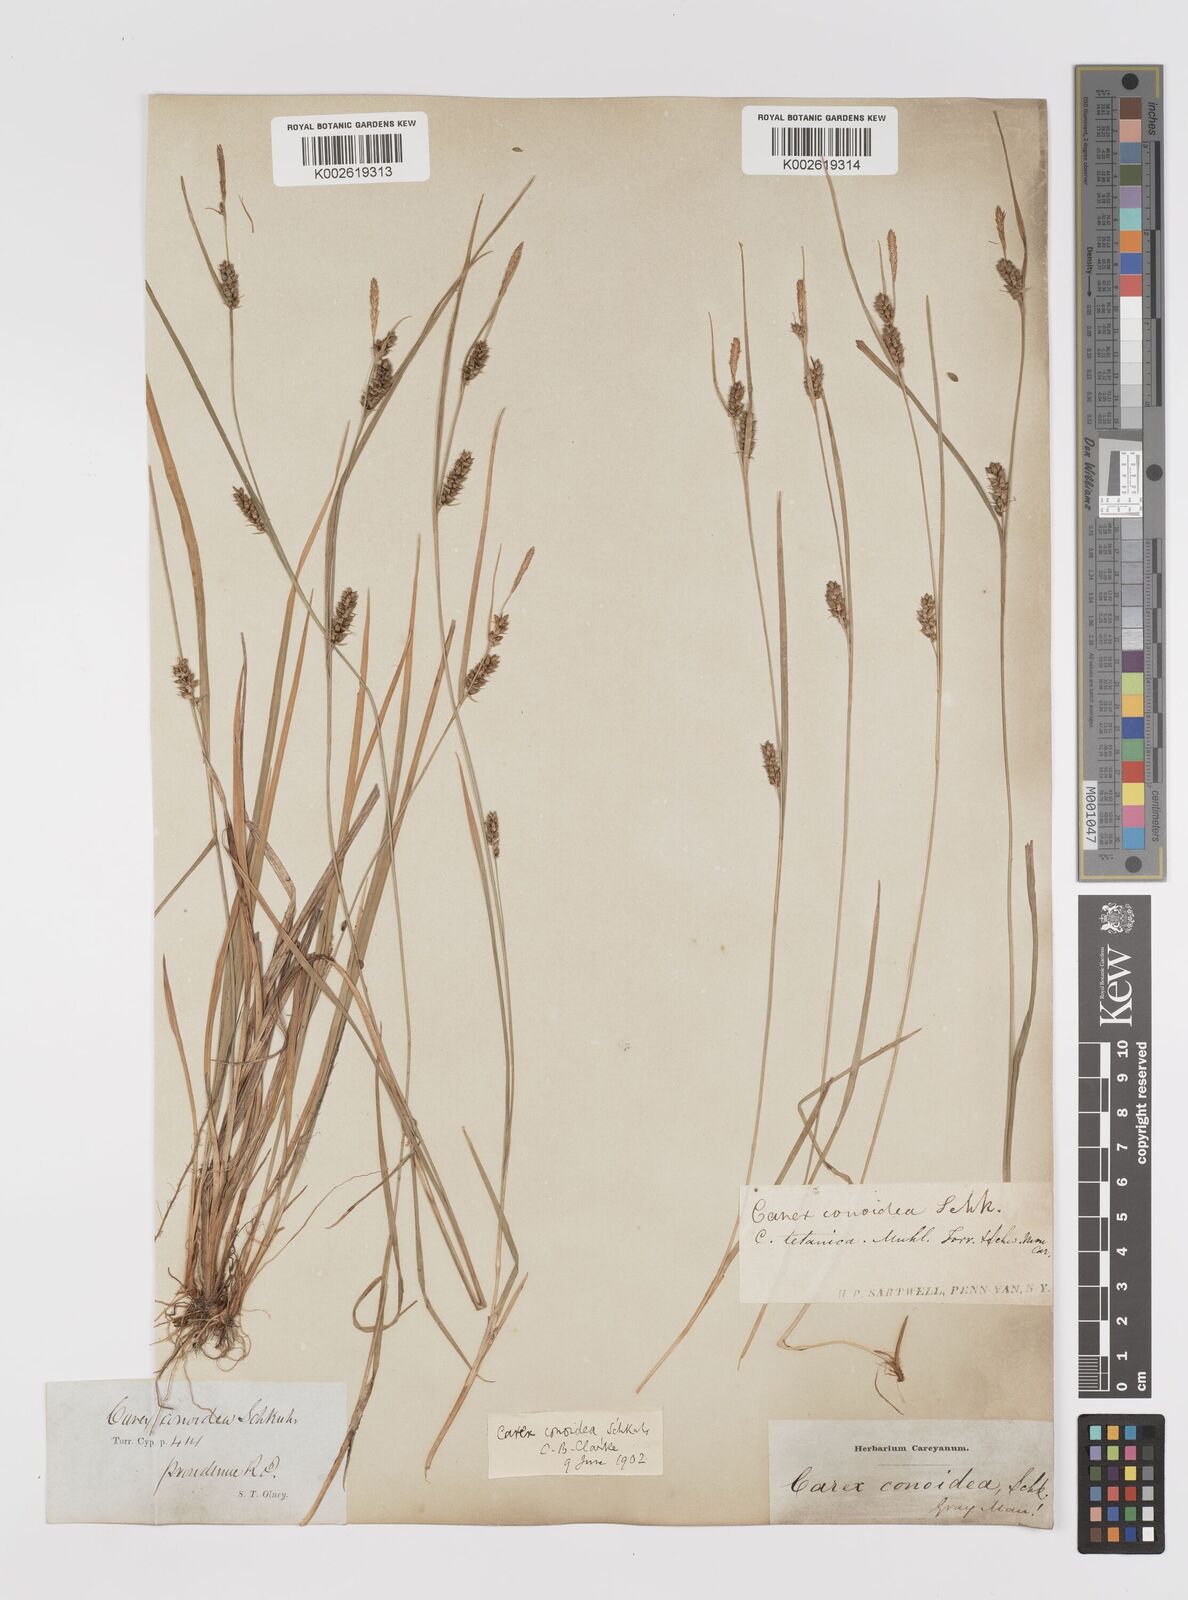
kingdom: Plantae
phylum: Tracheophyta
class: Liliopsida
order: Poales
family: Cyperaceae
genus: Carex
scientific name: Carex conoidea
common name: Cone shaped sedge
